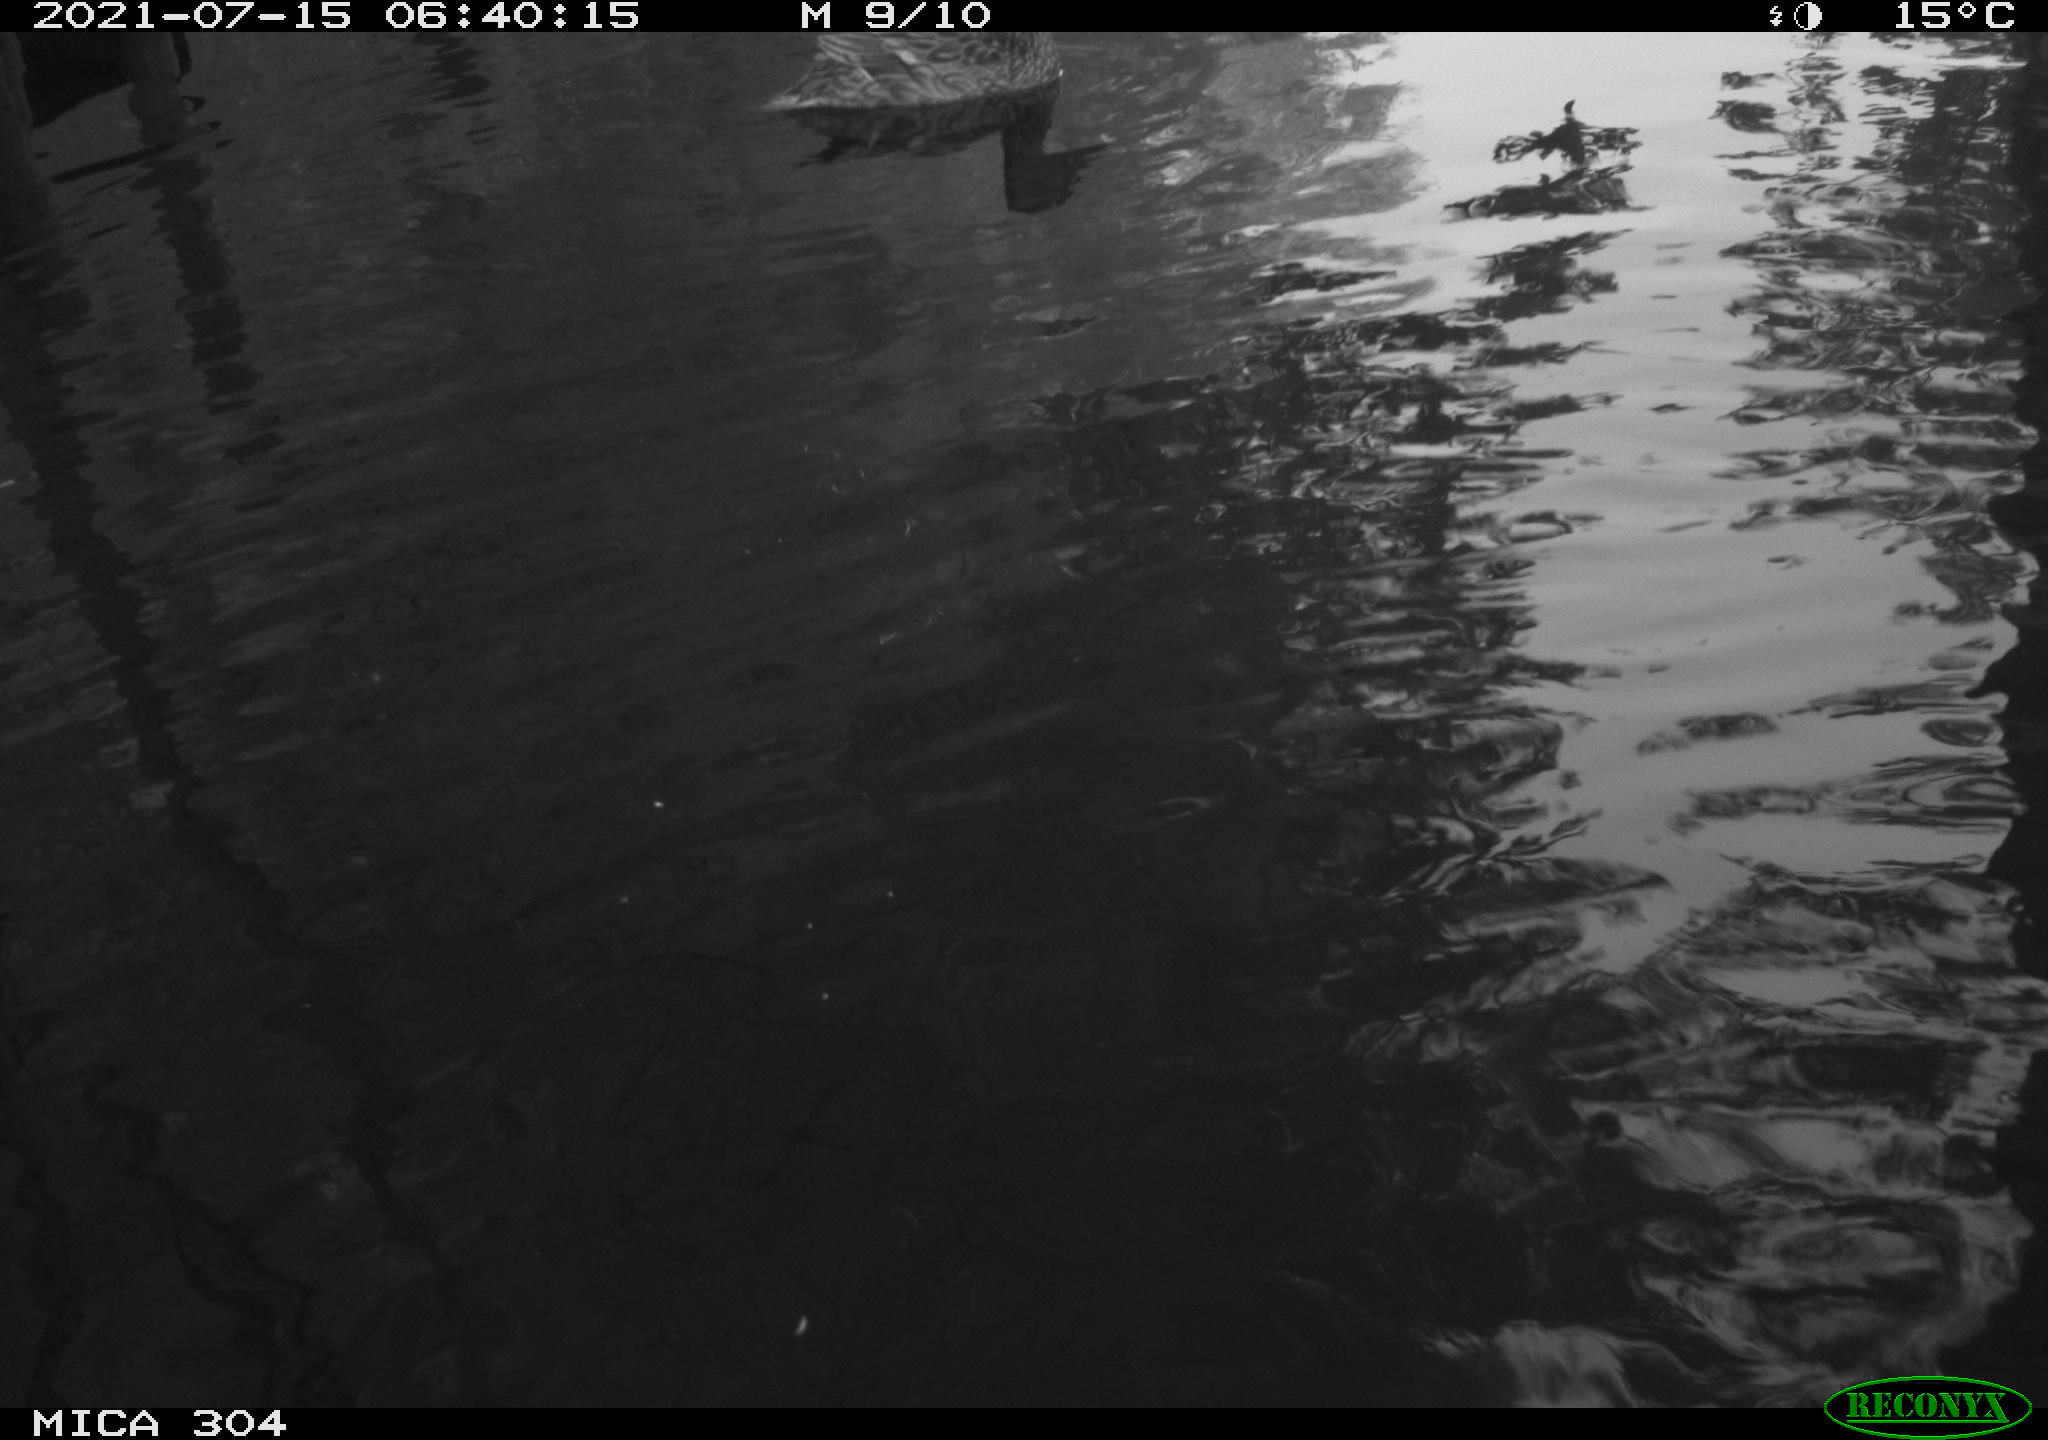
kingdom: Animalia
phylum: Chordata
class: Aves
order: Anseriformes
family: Anatidae
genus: Anas
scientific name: Anas platyrhynchos
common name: Mallard
